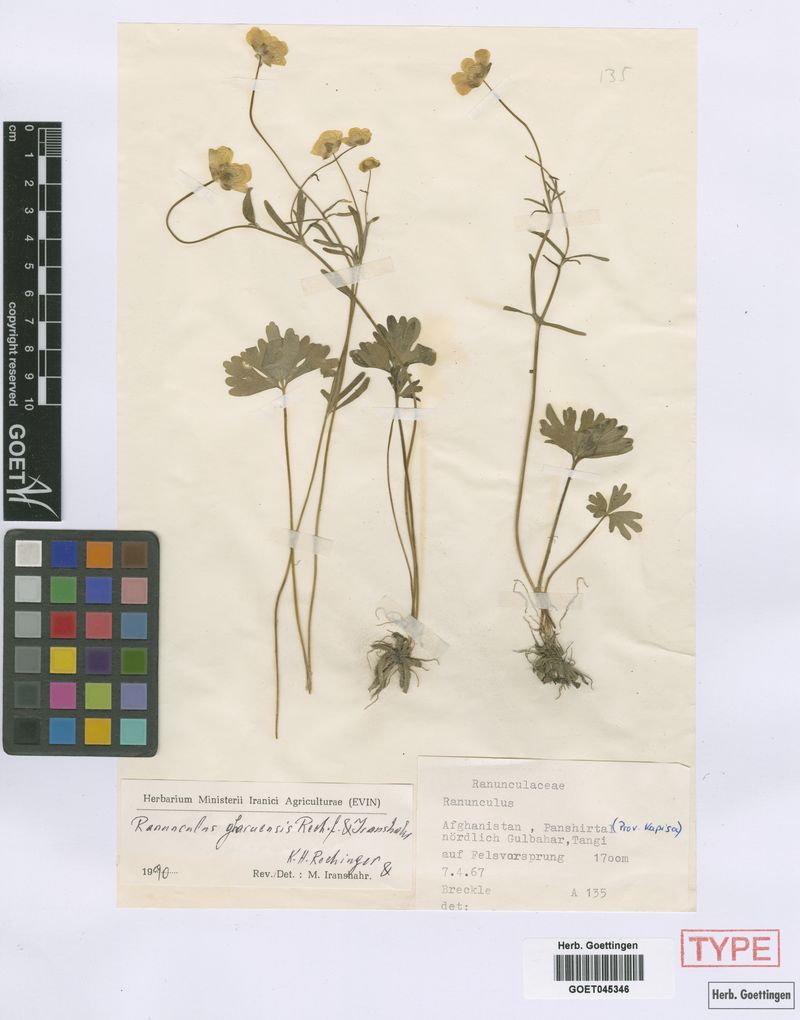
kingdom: Plantae
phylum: Tracheophyta
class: Magnoliopsida
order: Ranunculales
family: Ranunculaceae
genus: Ranunculus
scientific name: Ranunculus gharuensis
